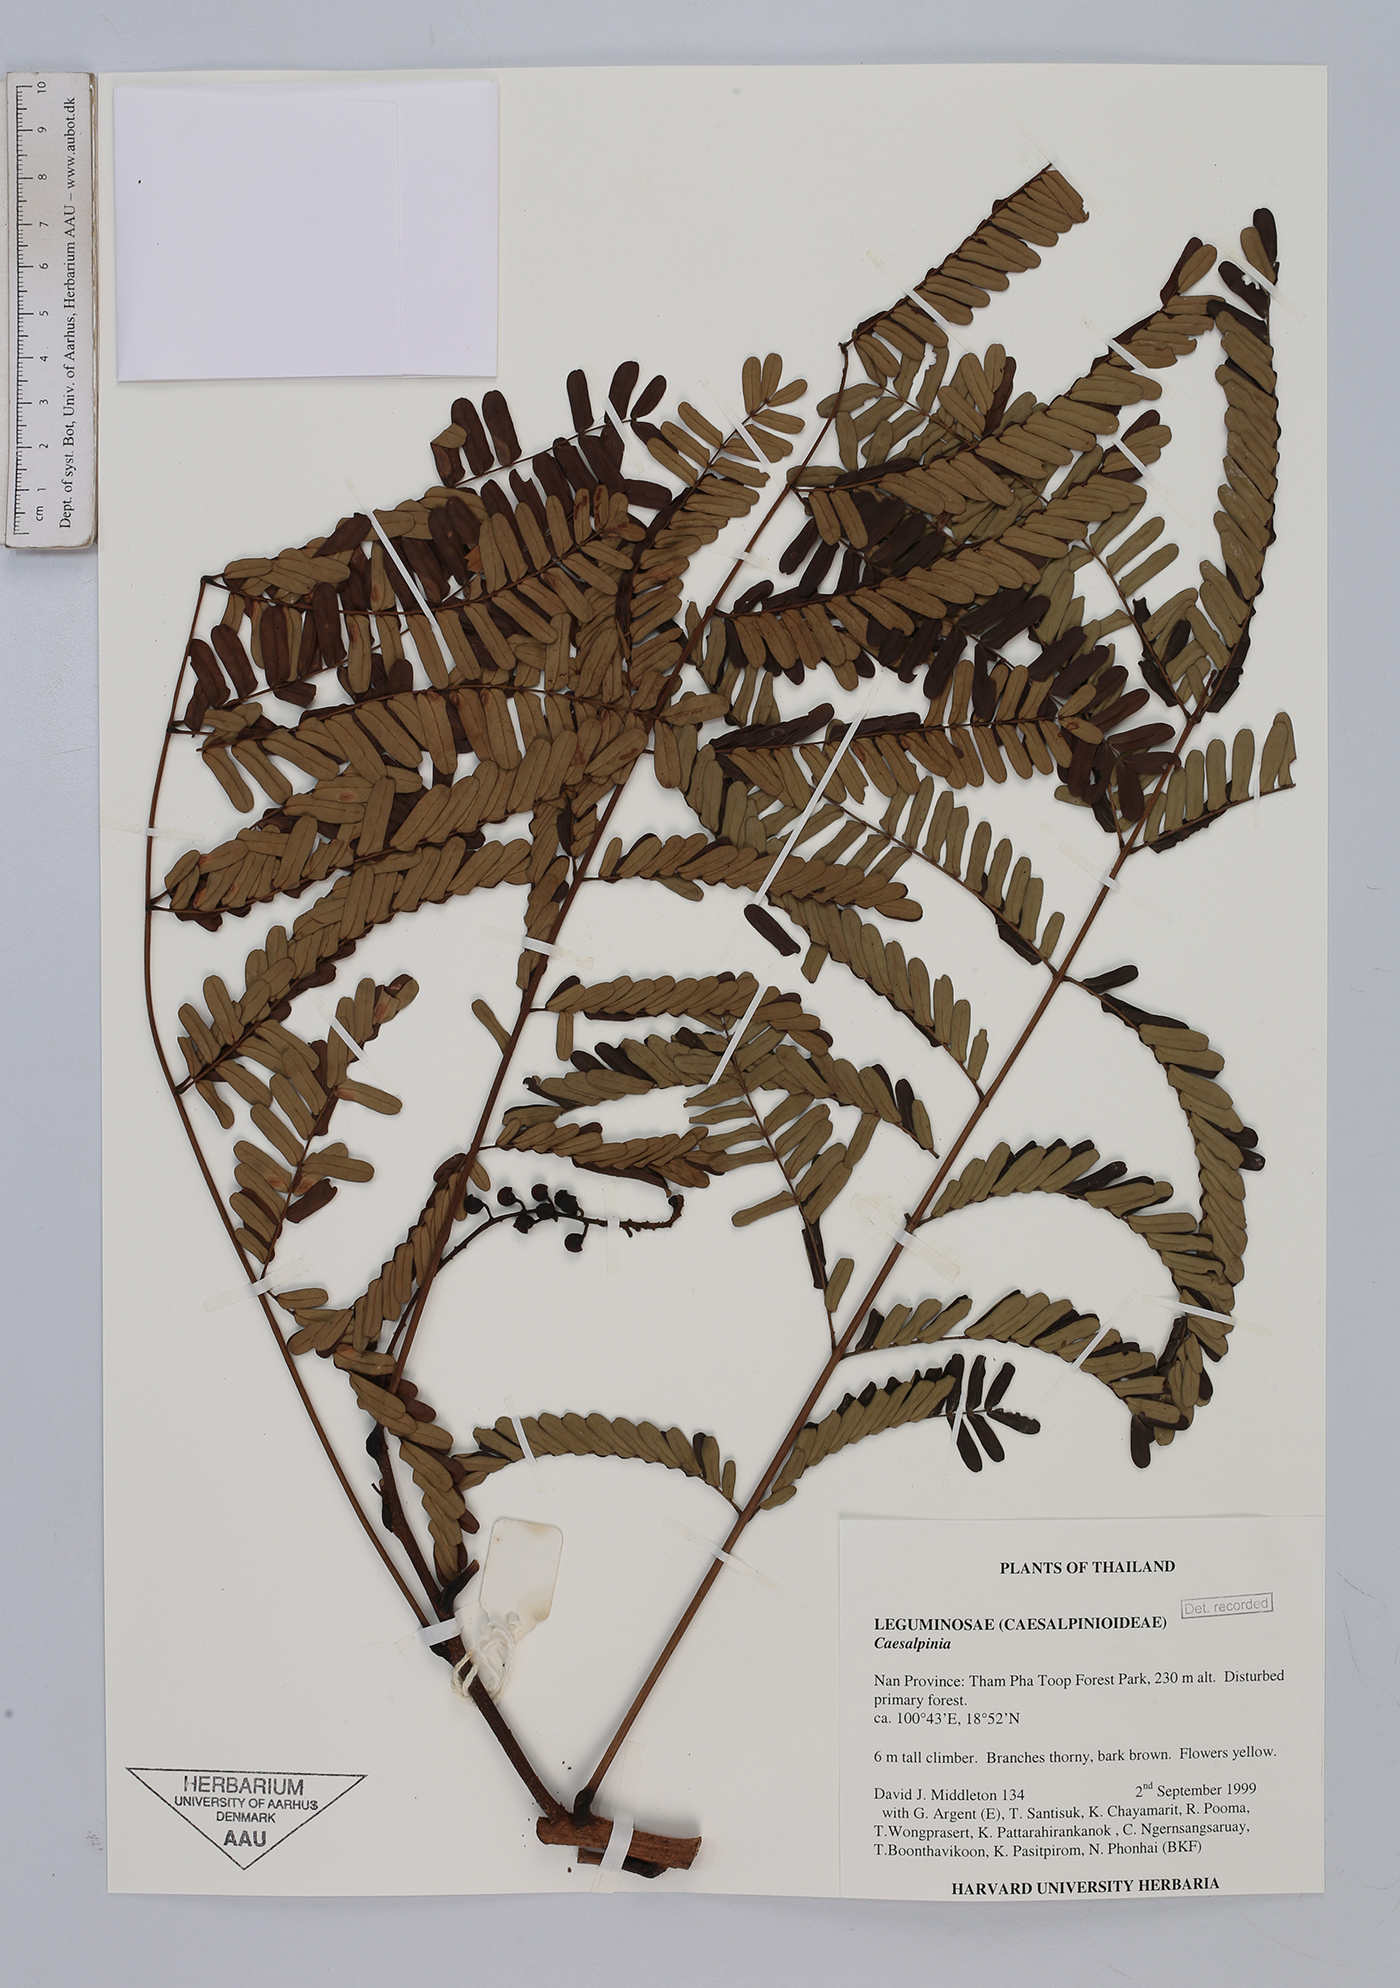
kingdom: Plantae
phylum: Tracheophyta
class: Magnoliopsida
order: Fabales
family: Fabaceae
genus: Caesalpinia
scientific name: Caesalpinia
